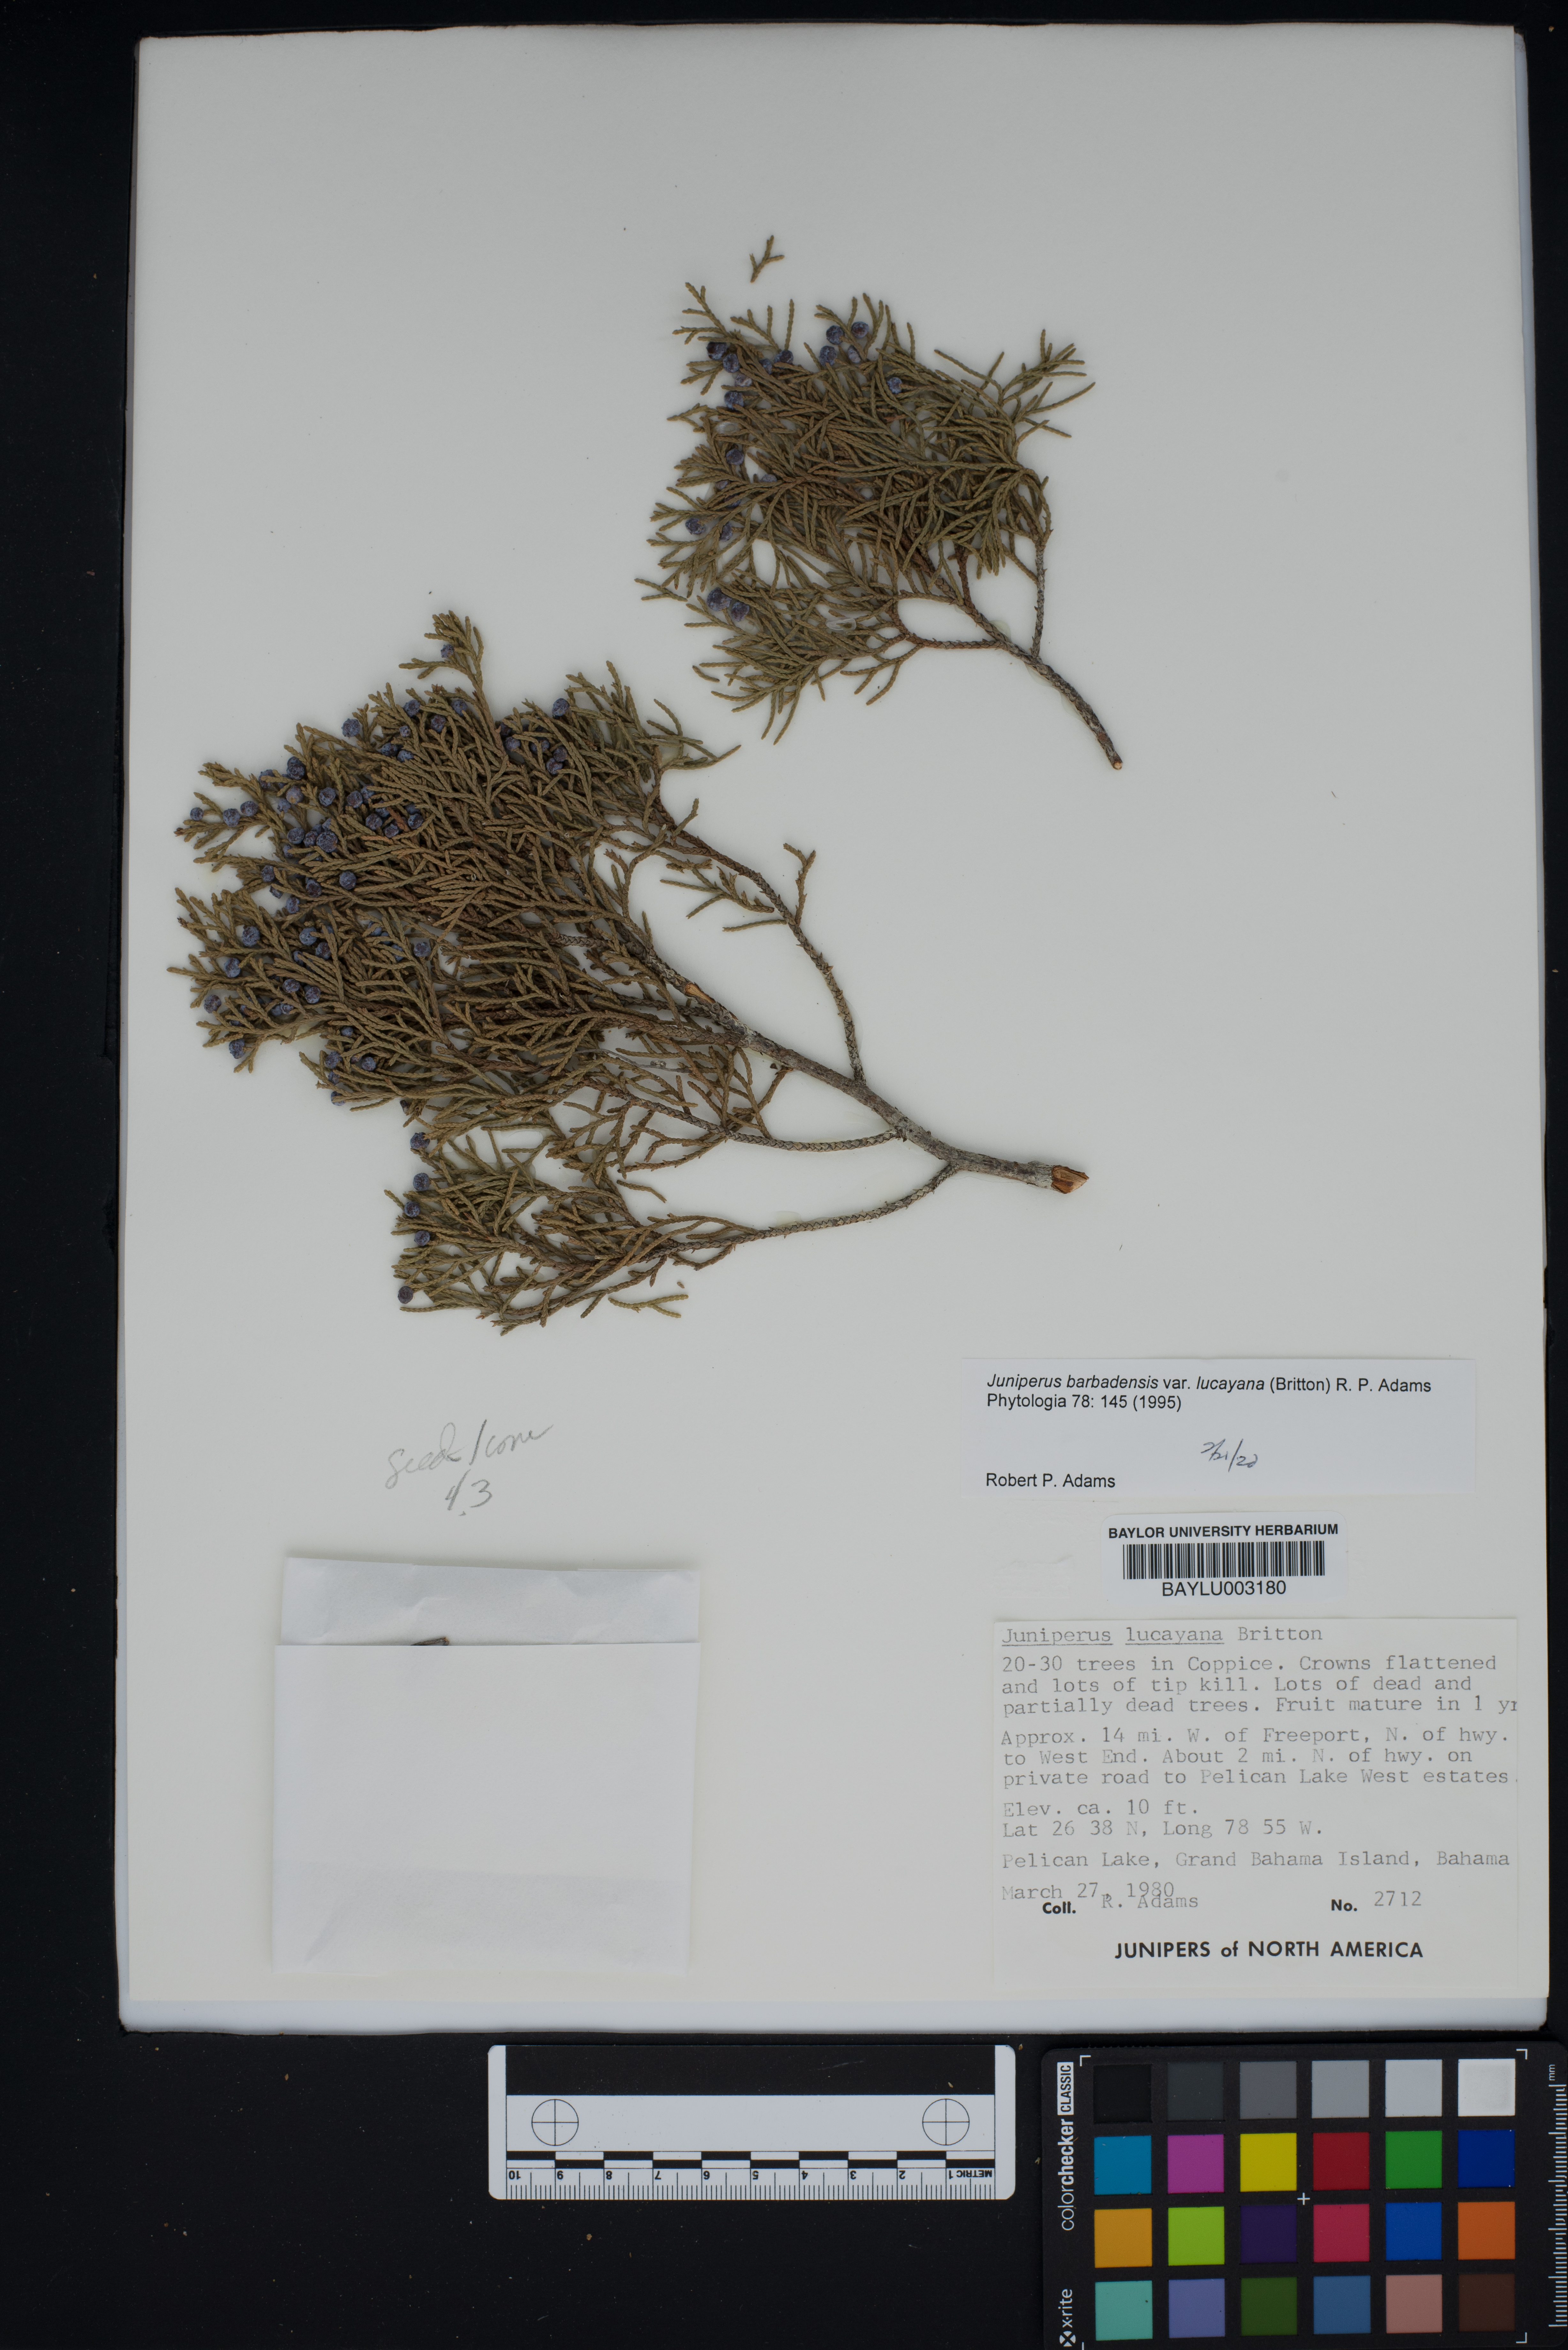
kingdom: Plantae
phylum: Tracheophyta
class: Pinopsida
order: Pinales
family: Cupressaceae
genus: Juniperus
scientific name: Juniperus barbadensis
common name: West indies juniper
